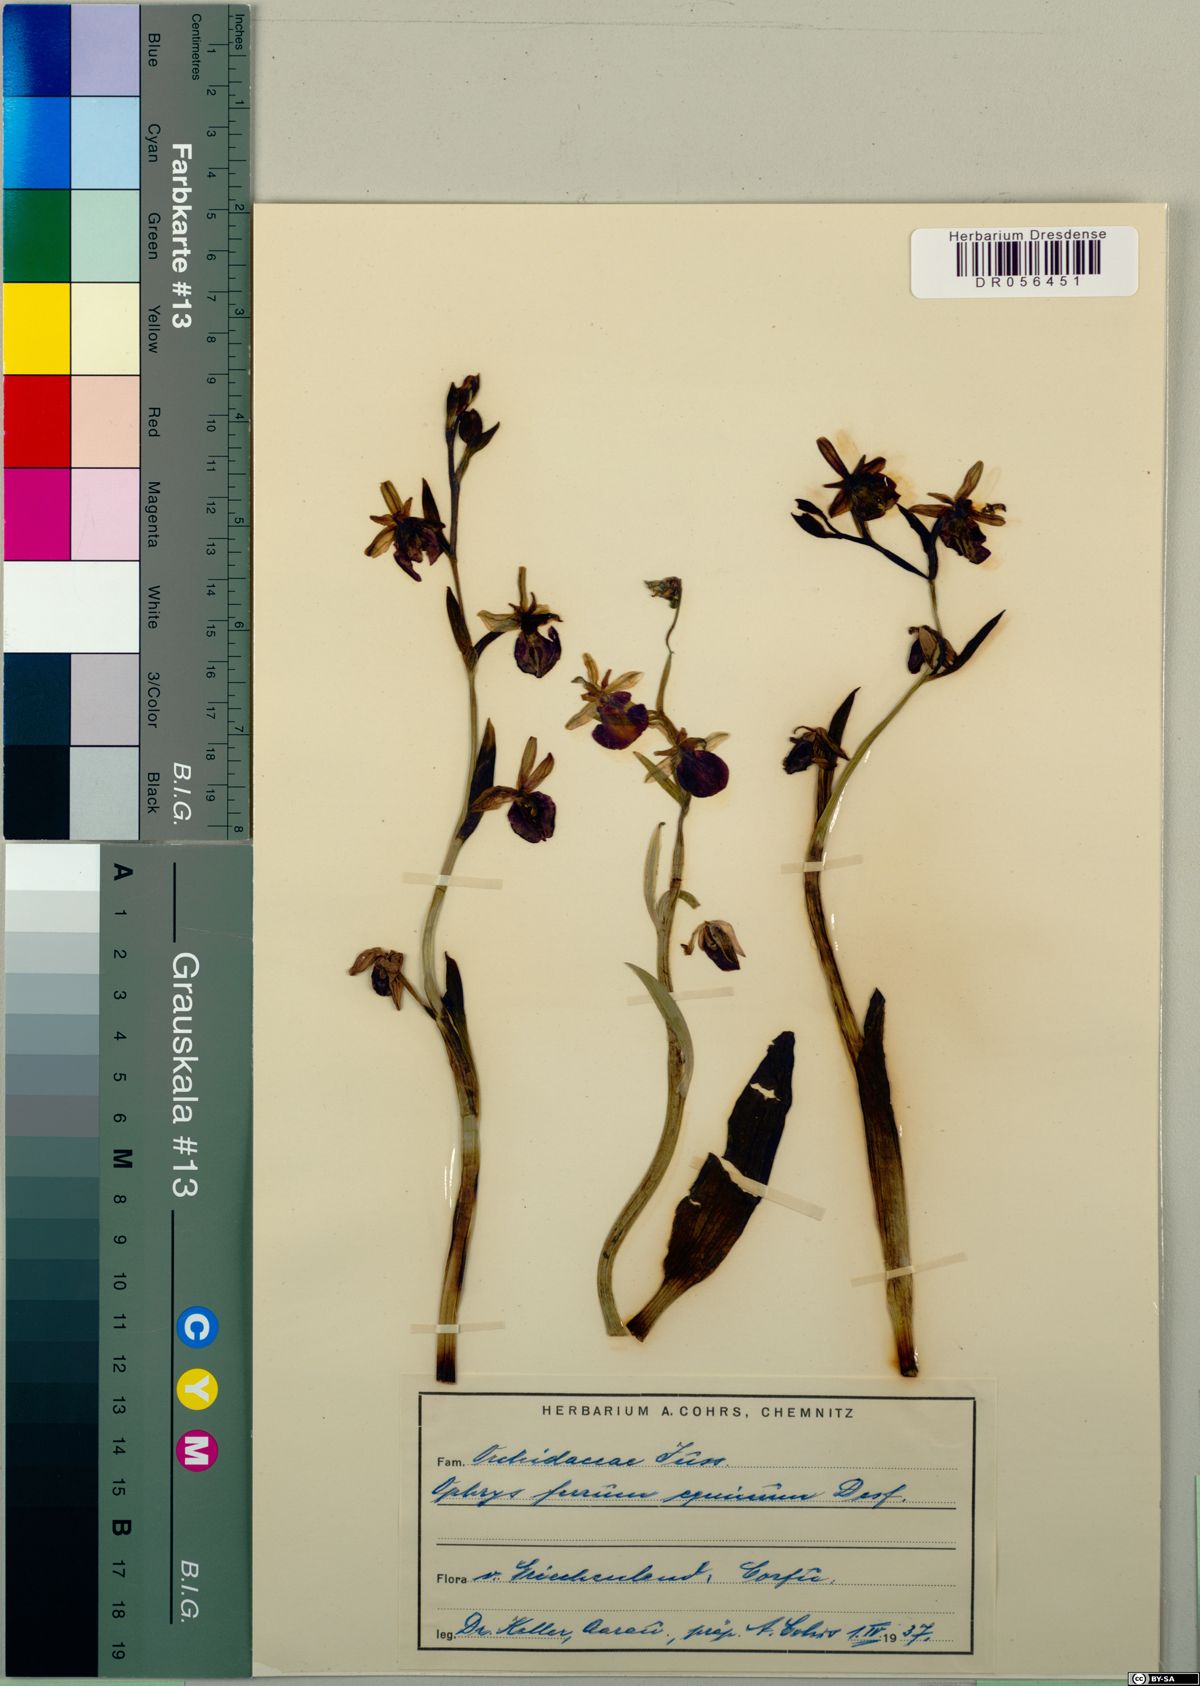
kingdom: Plantae
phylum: Tracheophyta
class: Liliopsida
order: Asparagales
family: Orchidaceae
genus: Ophrys
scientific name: Ophrys sphegodes
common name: Early spider-orchid
